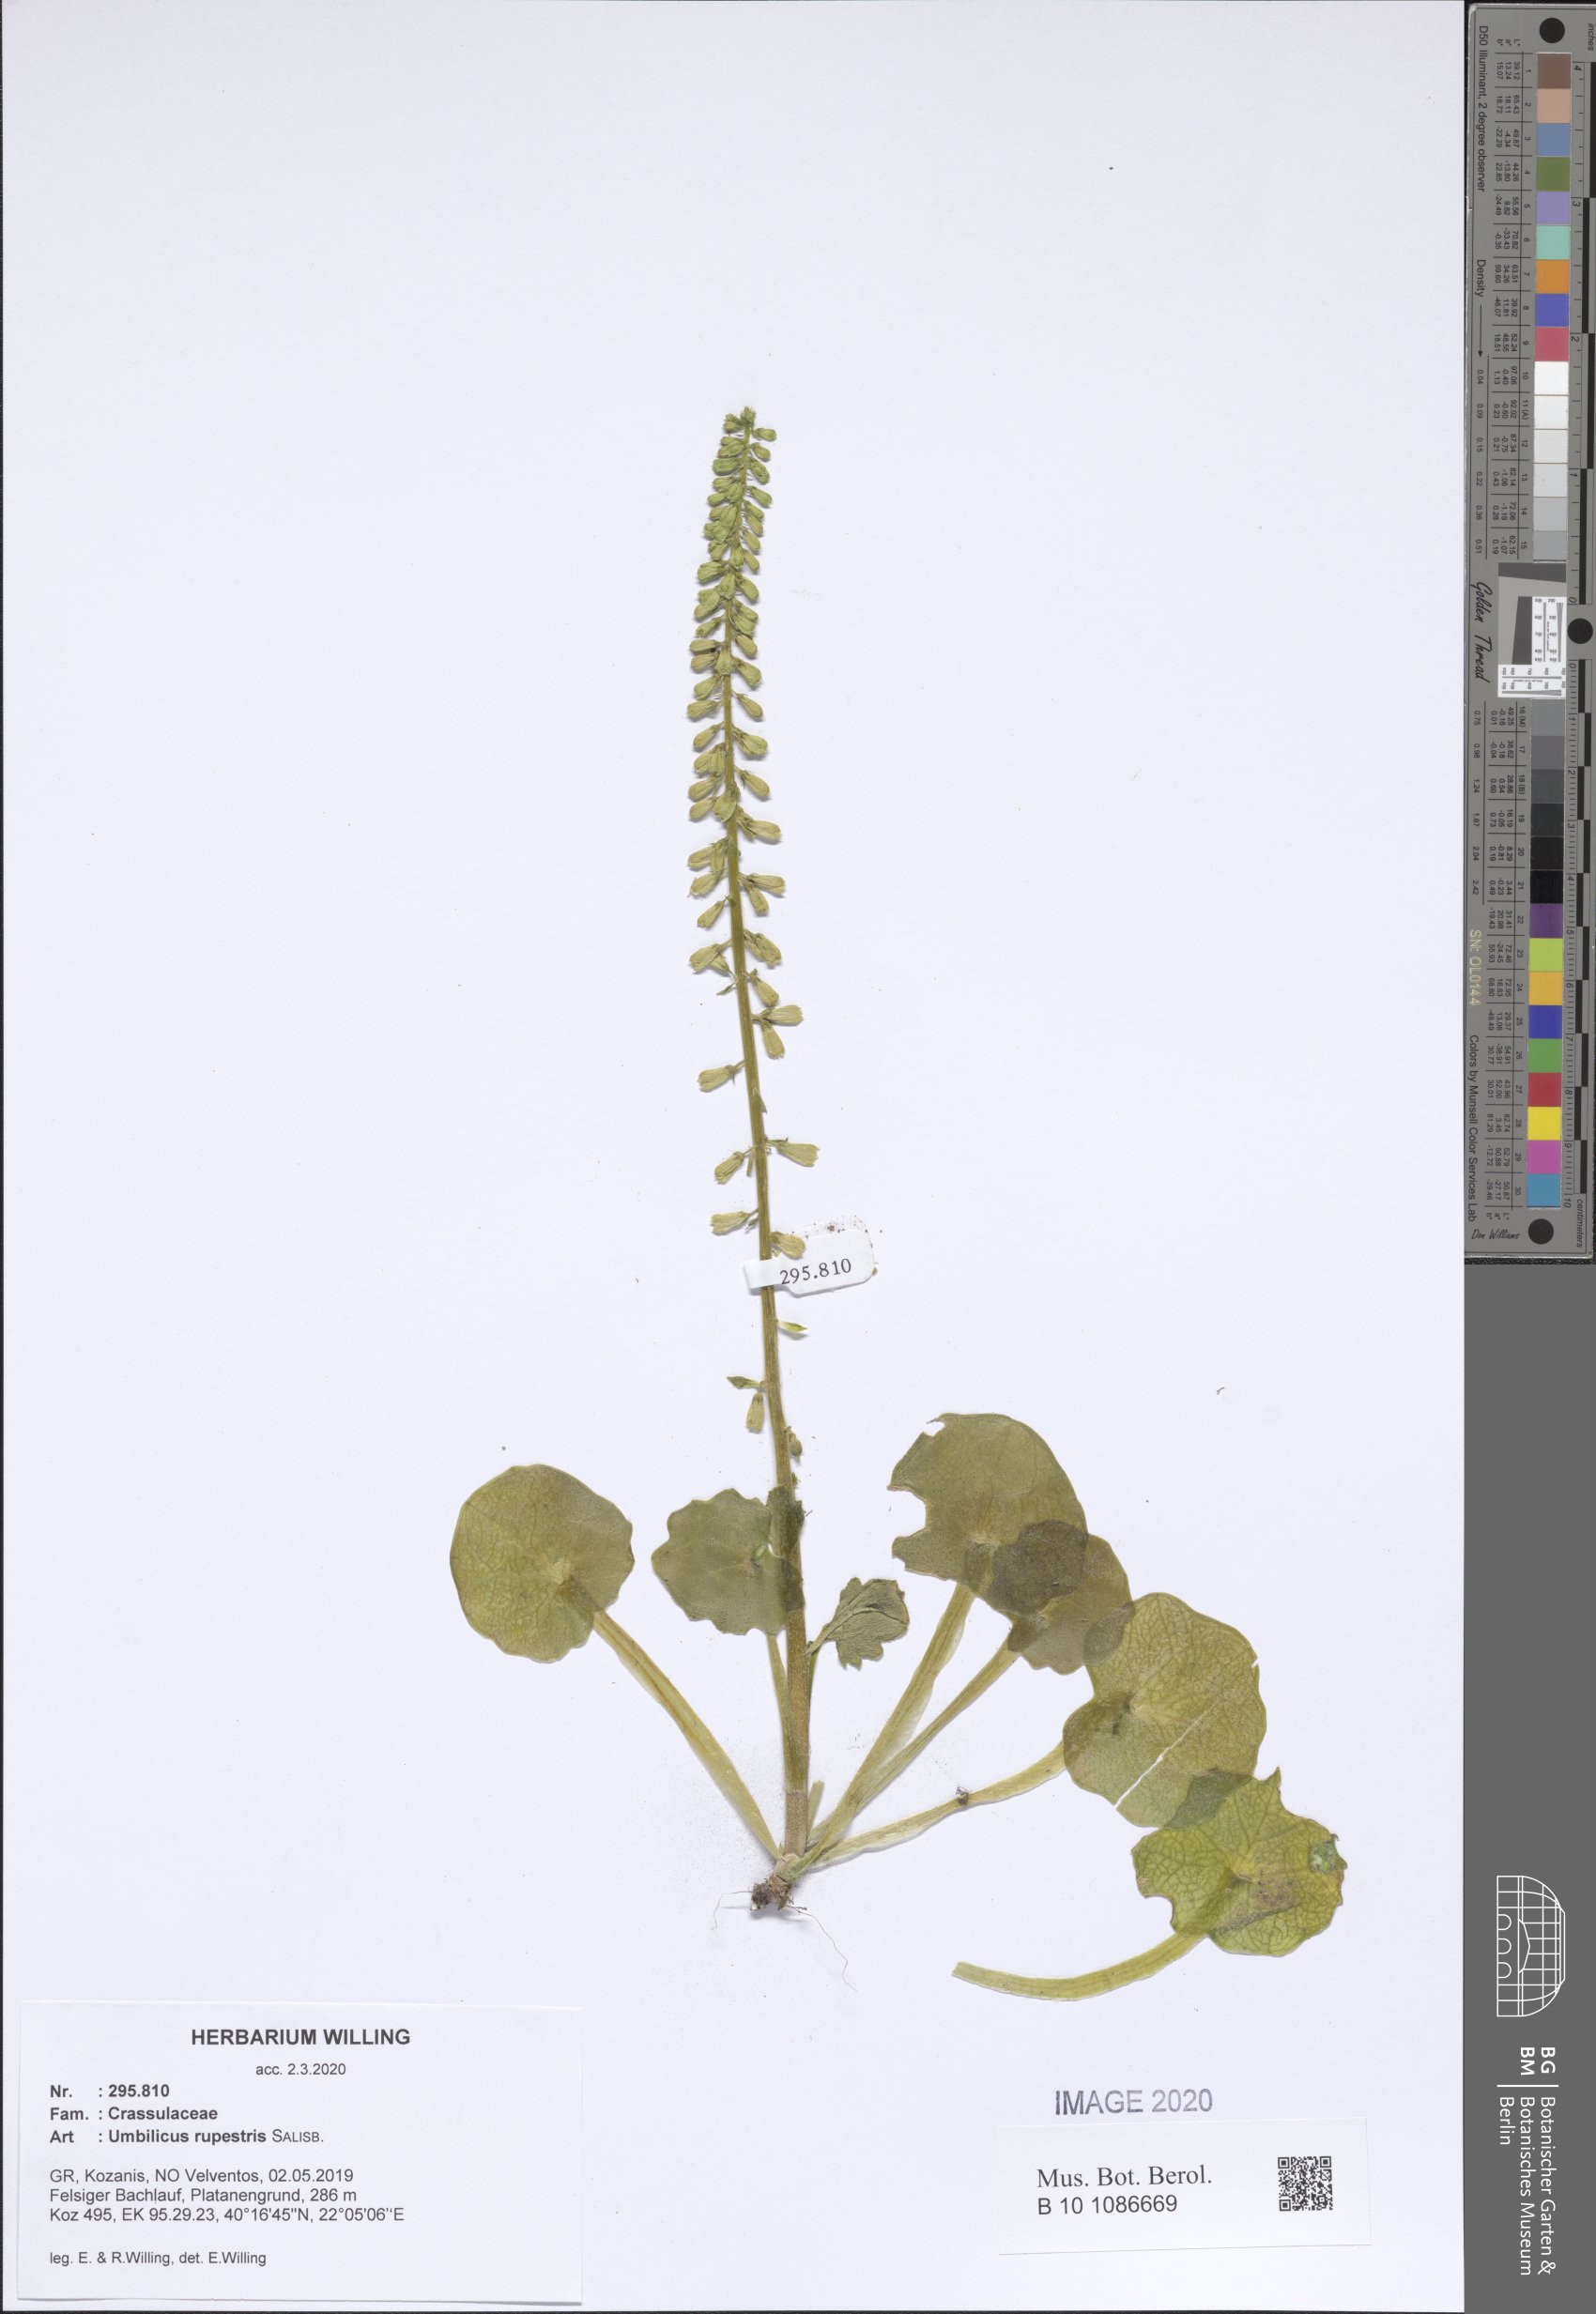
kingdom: Plantae
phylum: Tracheophyta
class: Magnoliopsida
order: Saxifragales
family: Crassulaceae
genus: Umbilicus
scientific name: Umbilicus rupestris
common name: Navelwort
